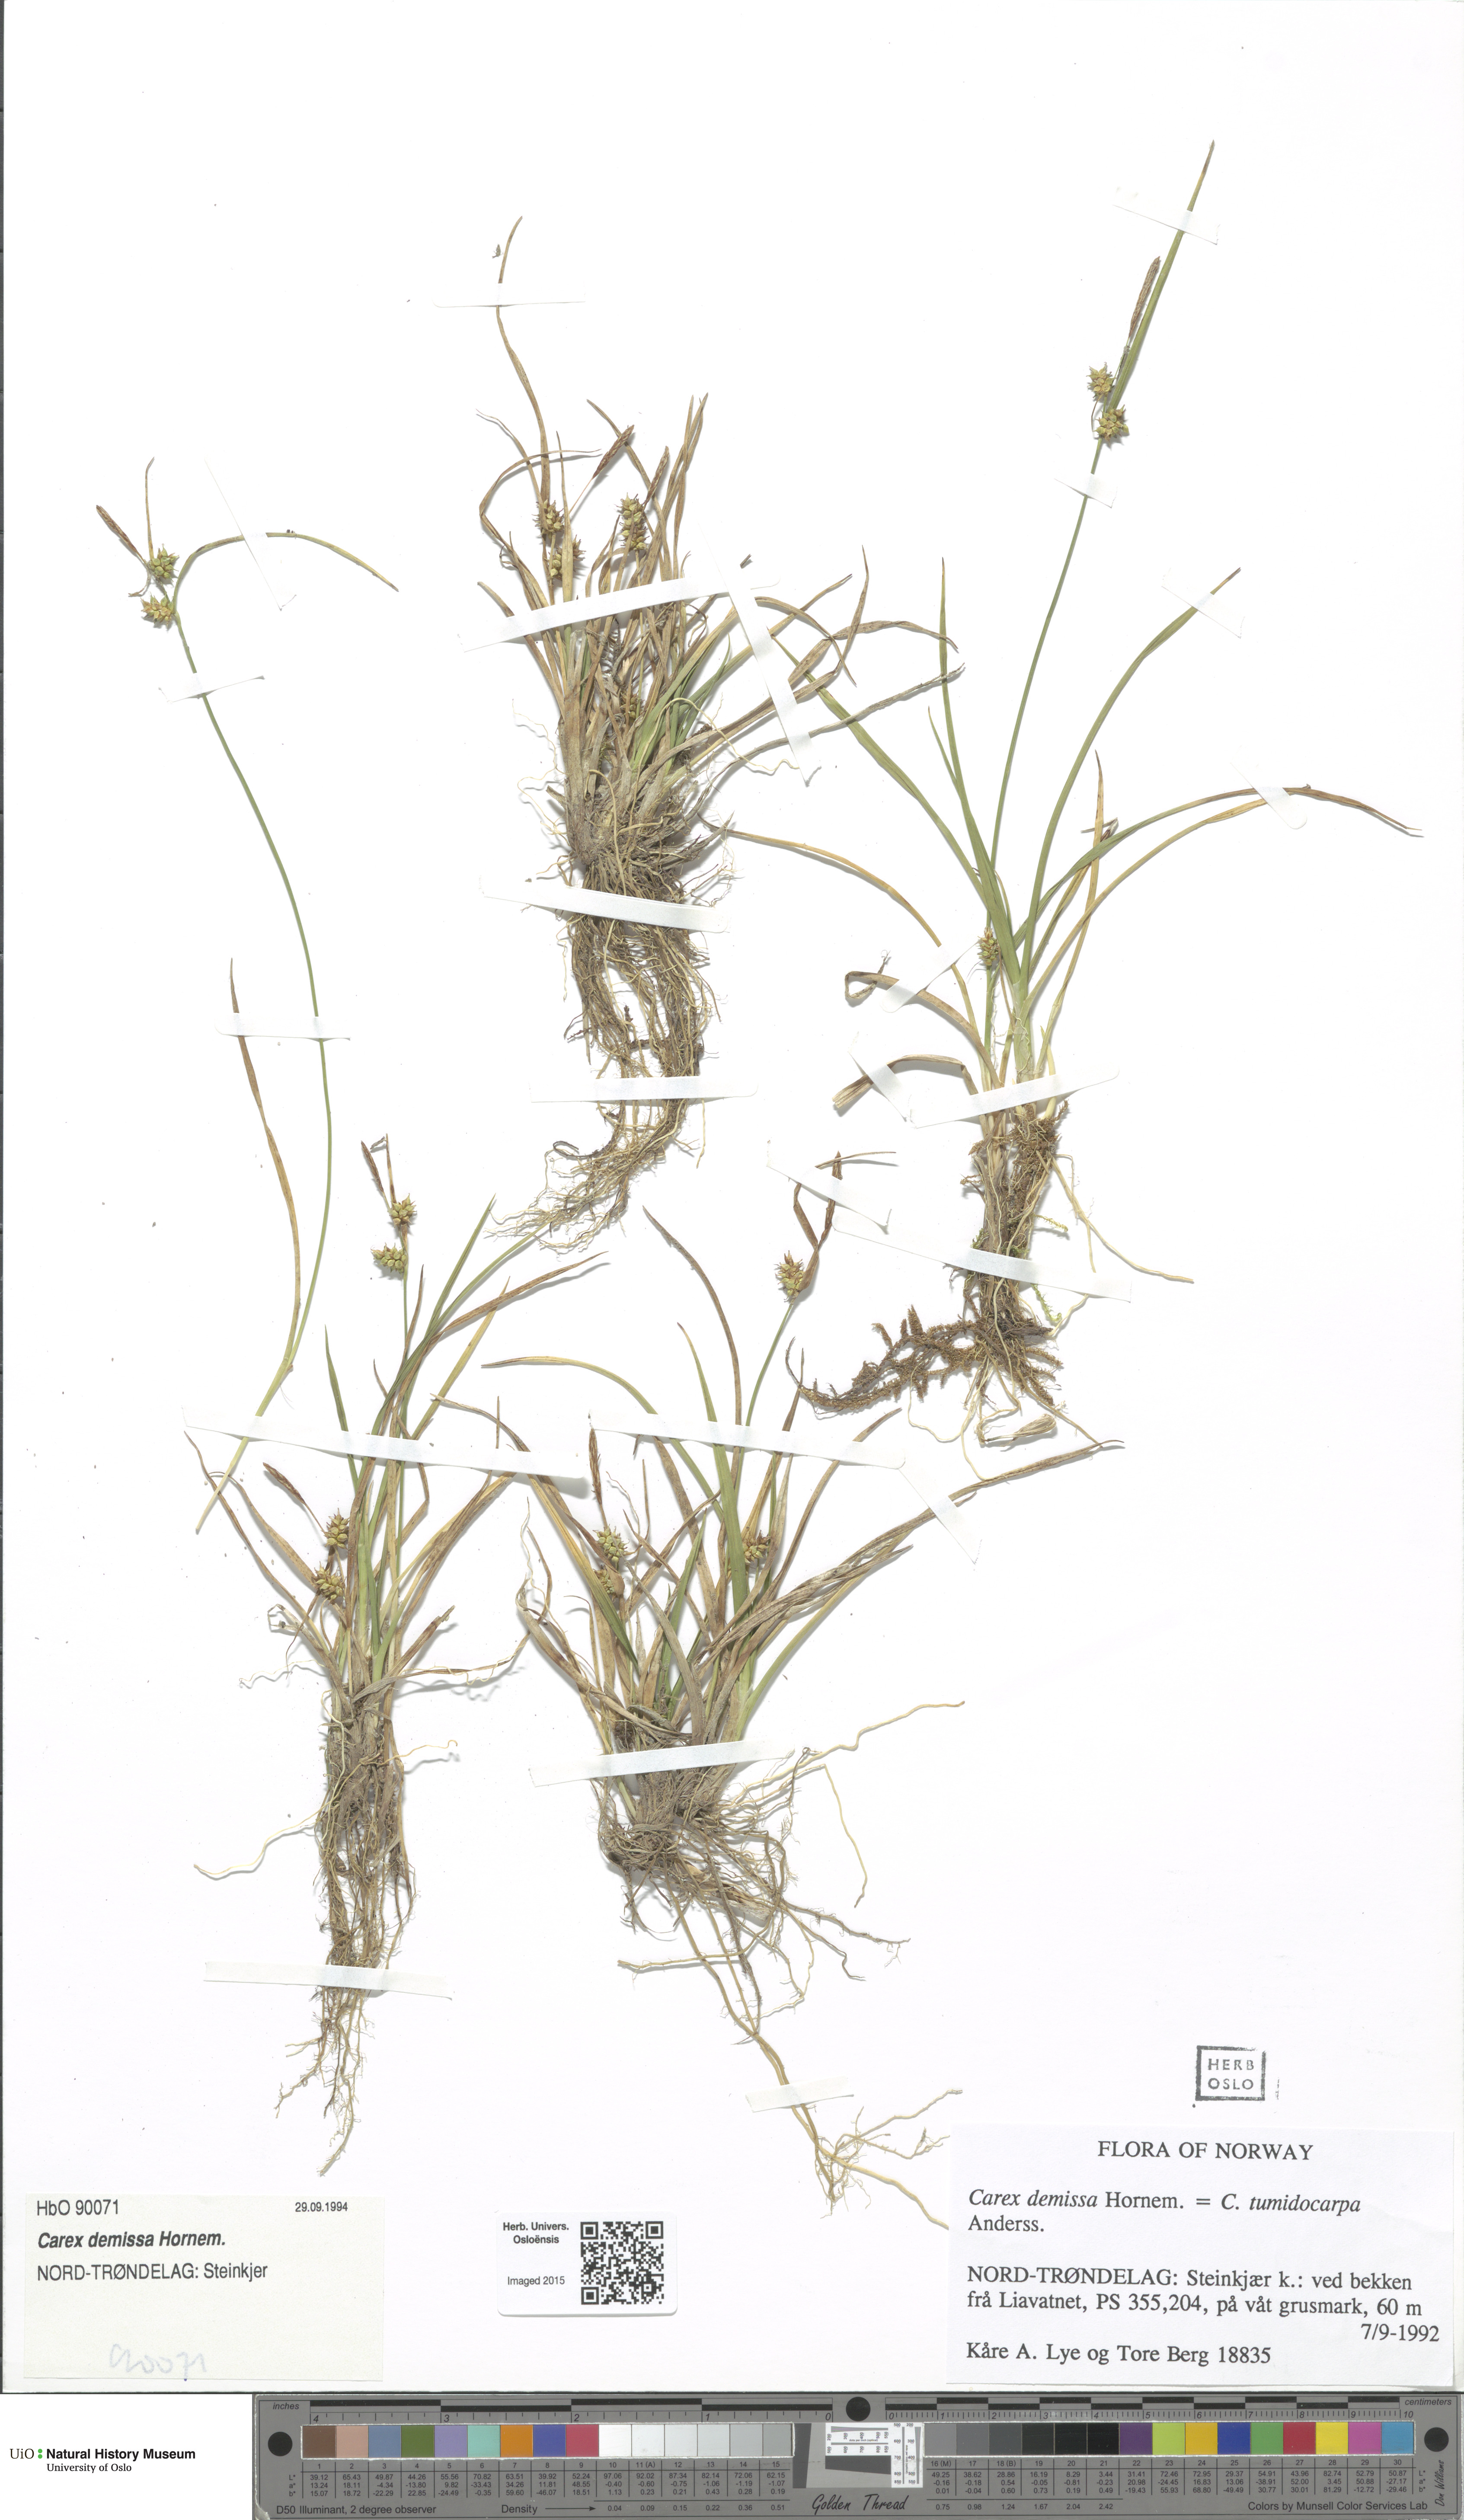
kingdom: Plantae
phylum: Tracheophyta
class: Liliopsida
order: Poales
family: Cyperaceae
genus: Carex
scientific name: Carex demissa
